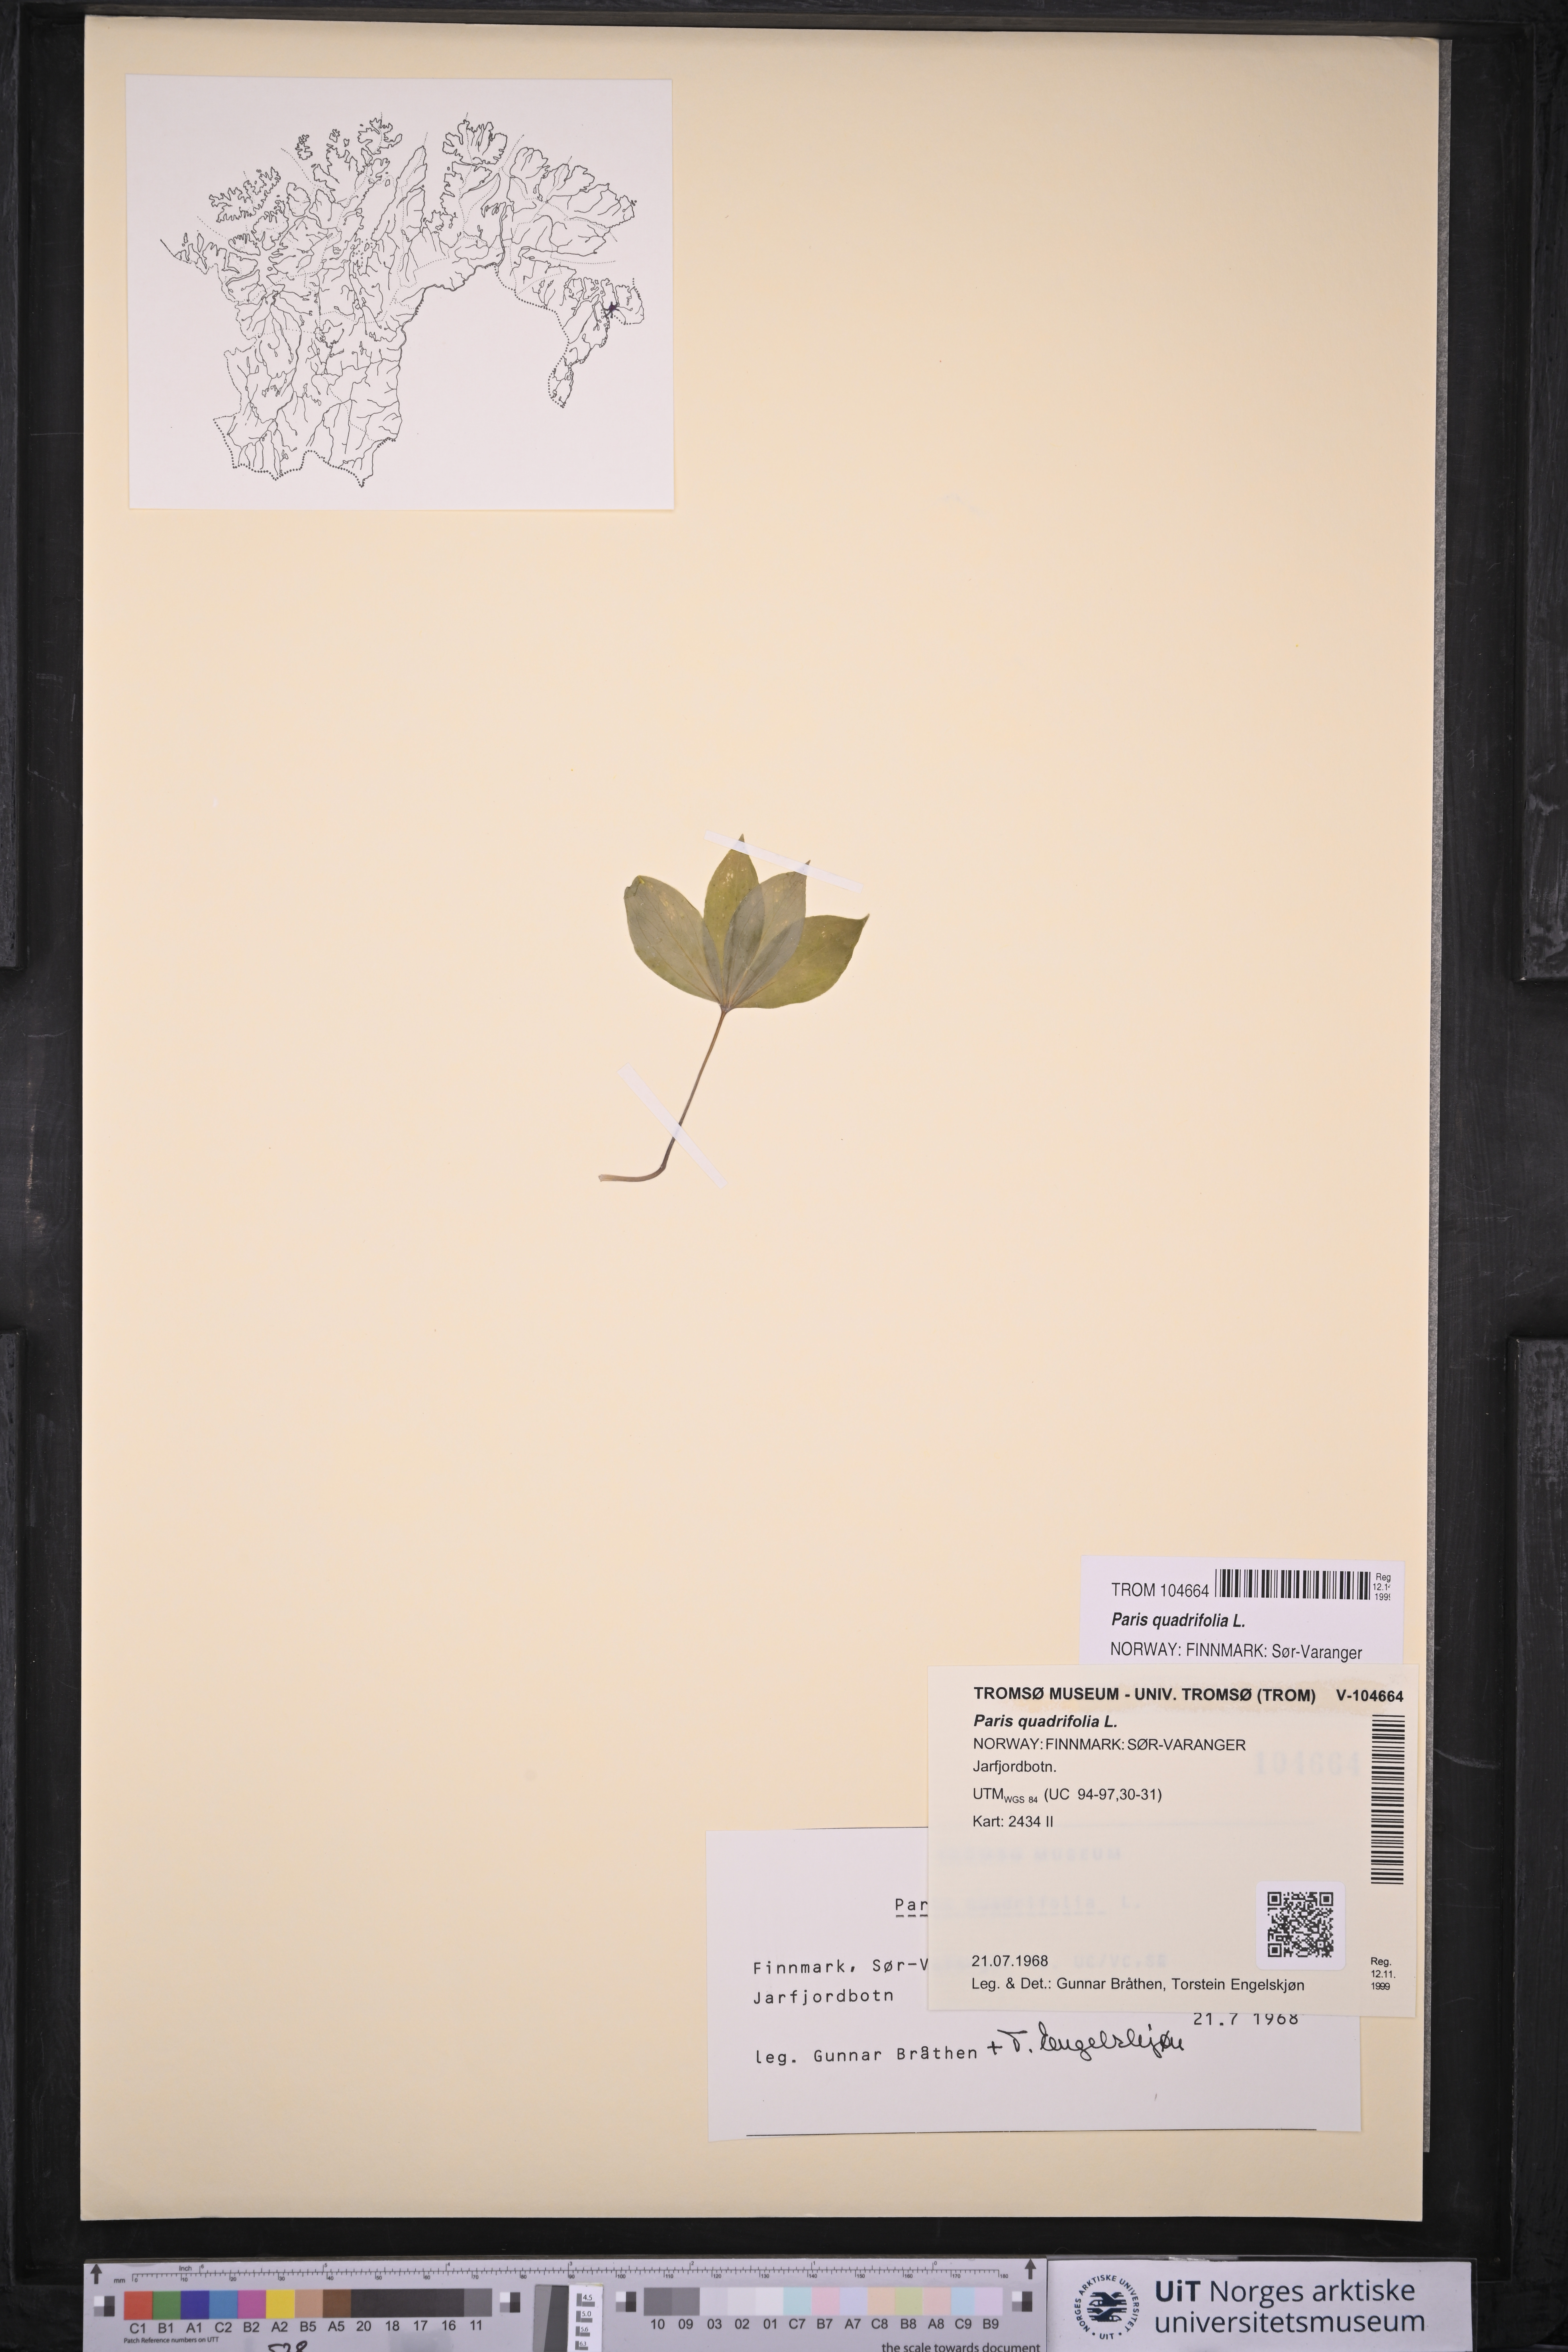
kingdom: Plantae
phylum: Tracheophyta
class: Liliopsida
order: Liliales
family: Melanthiaceae
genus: Paris
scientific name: Paris quadrifolia
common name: Herb-paris
